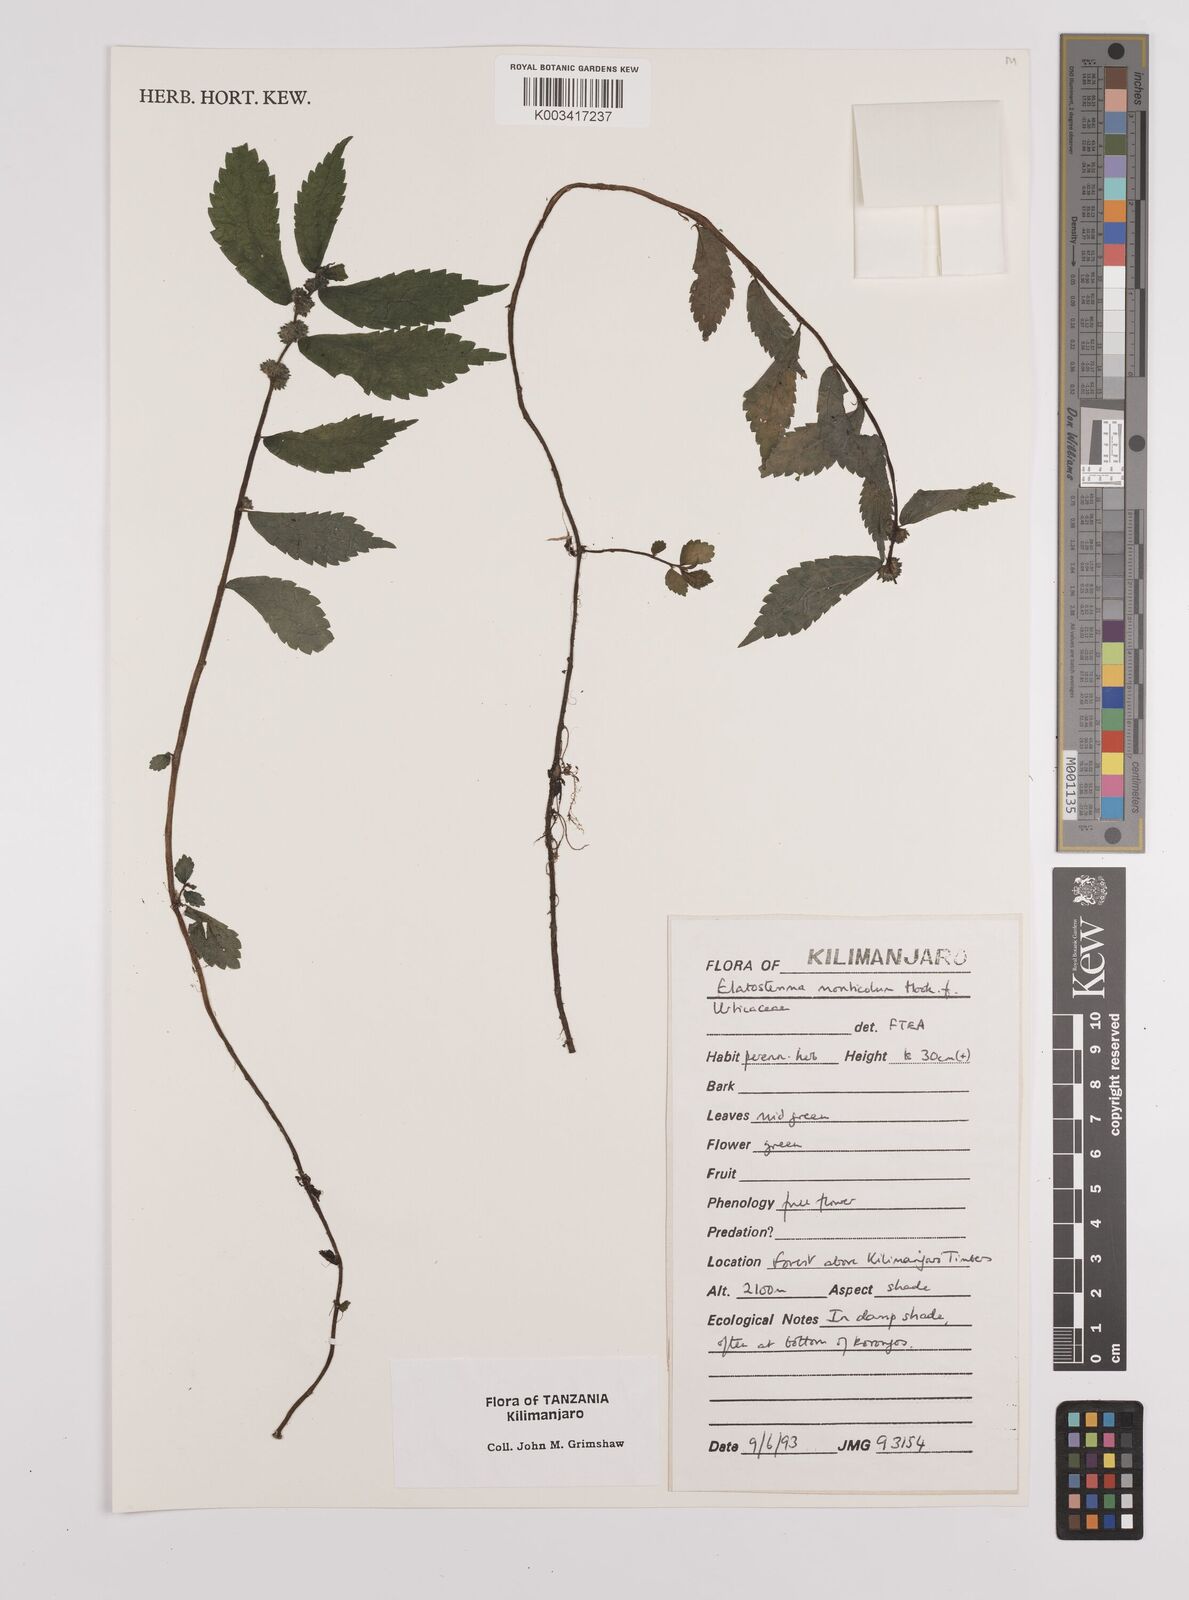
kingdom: Plantae
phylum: Tracheophyta
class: Magnoliopsida
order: Rosales
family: Urticaceae
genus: Elatostema
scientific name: Elatostema monticola
